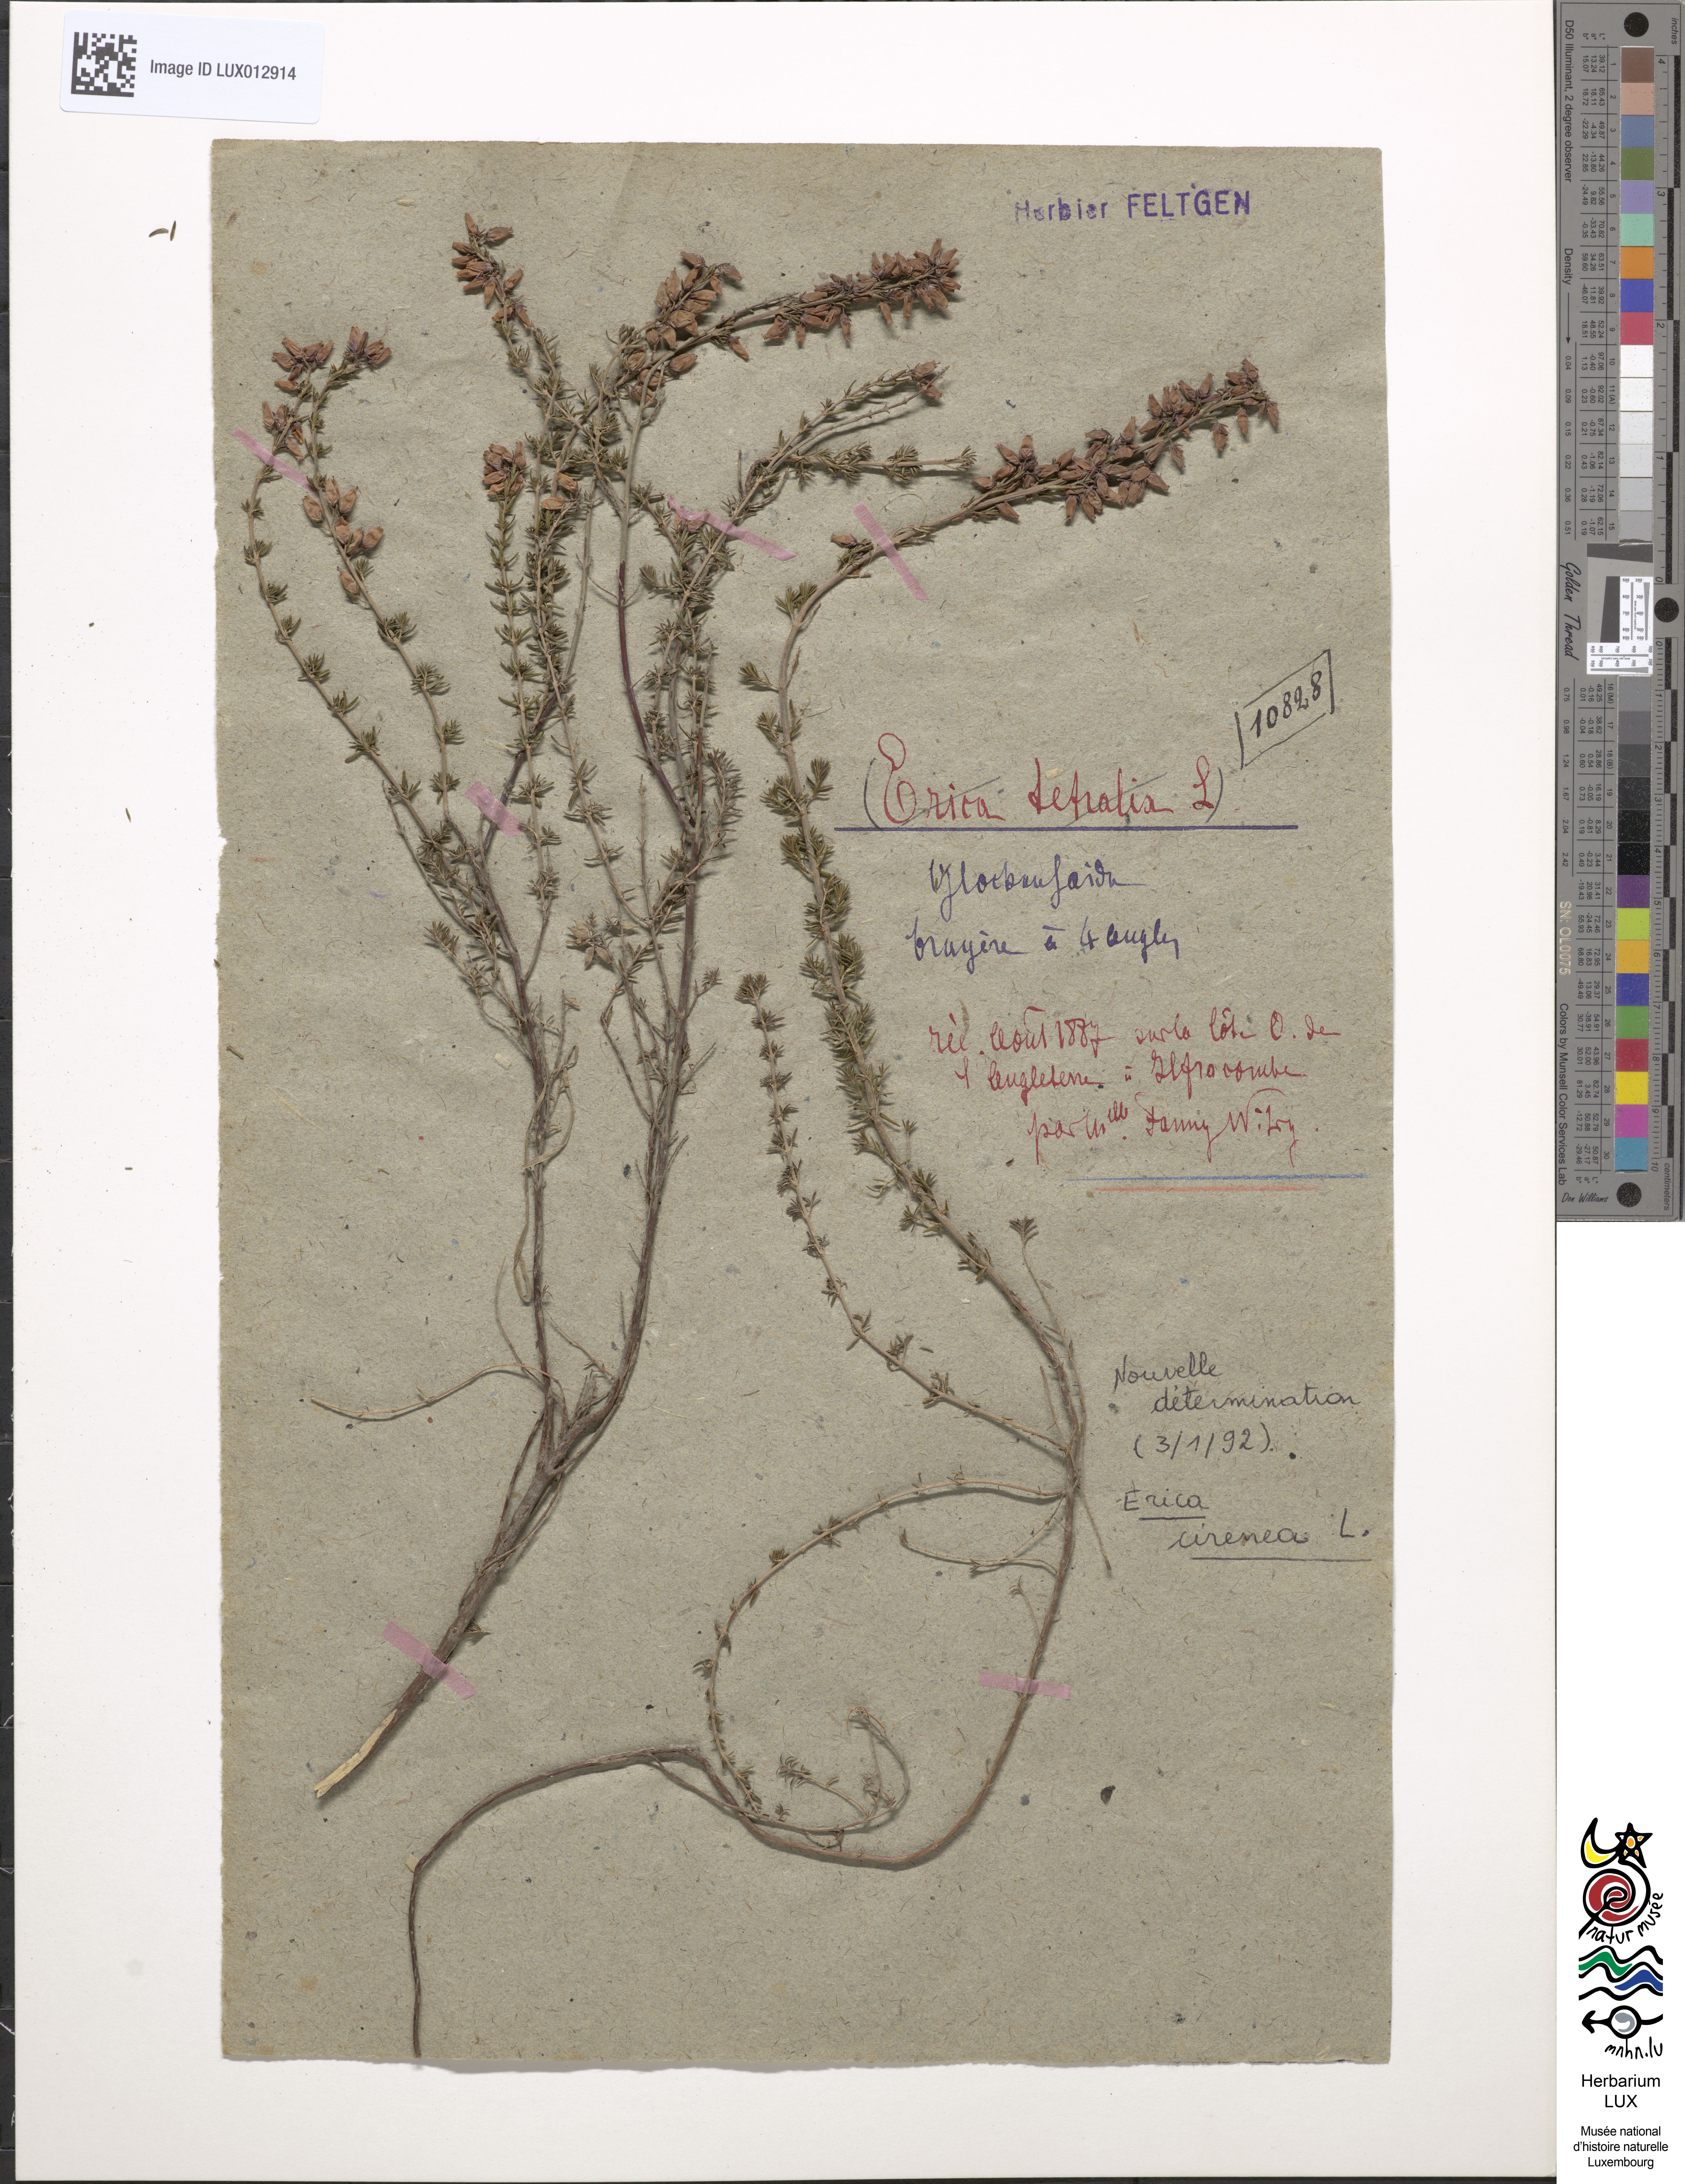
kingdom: Plantae
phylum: Tracheophyta
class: Magnoliopsida
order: Ericales
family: Ericaceae
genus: Erica
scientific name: Erica tetralix
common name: Cross-leaved heath
